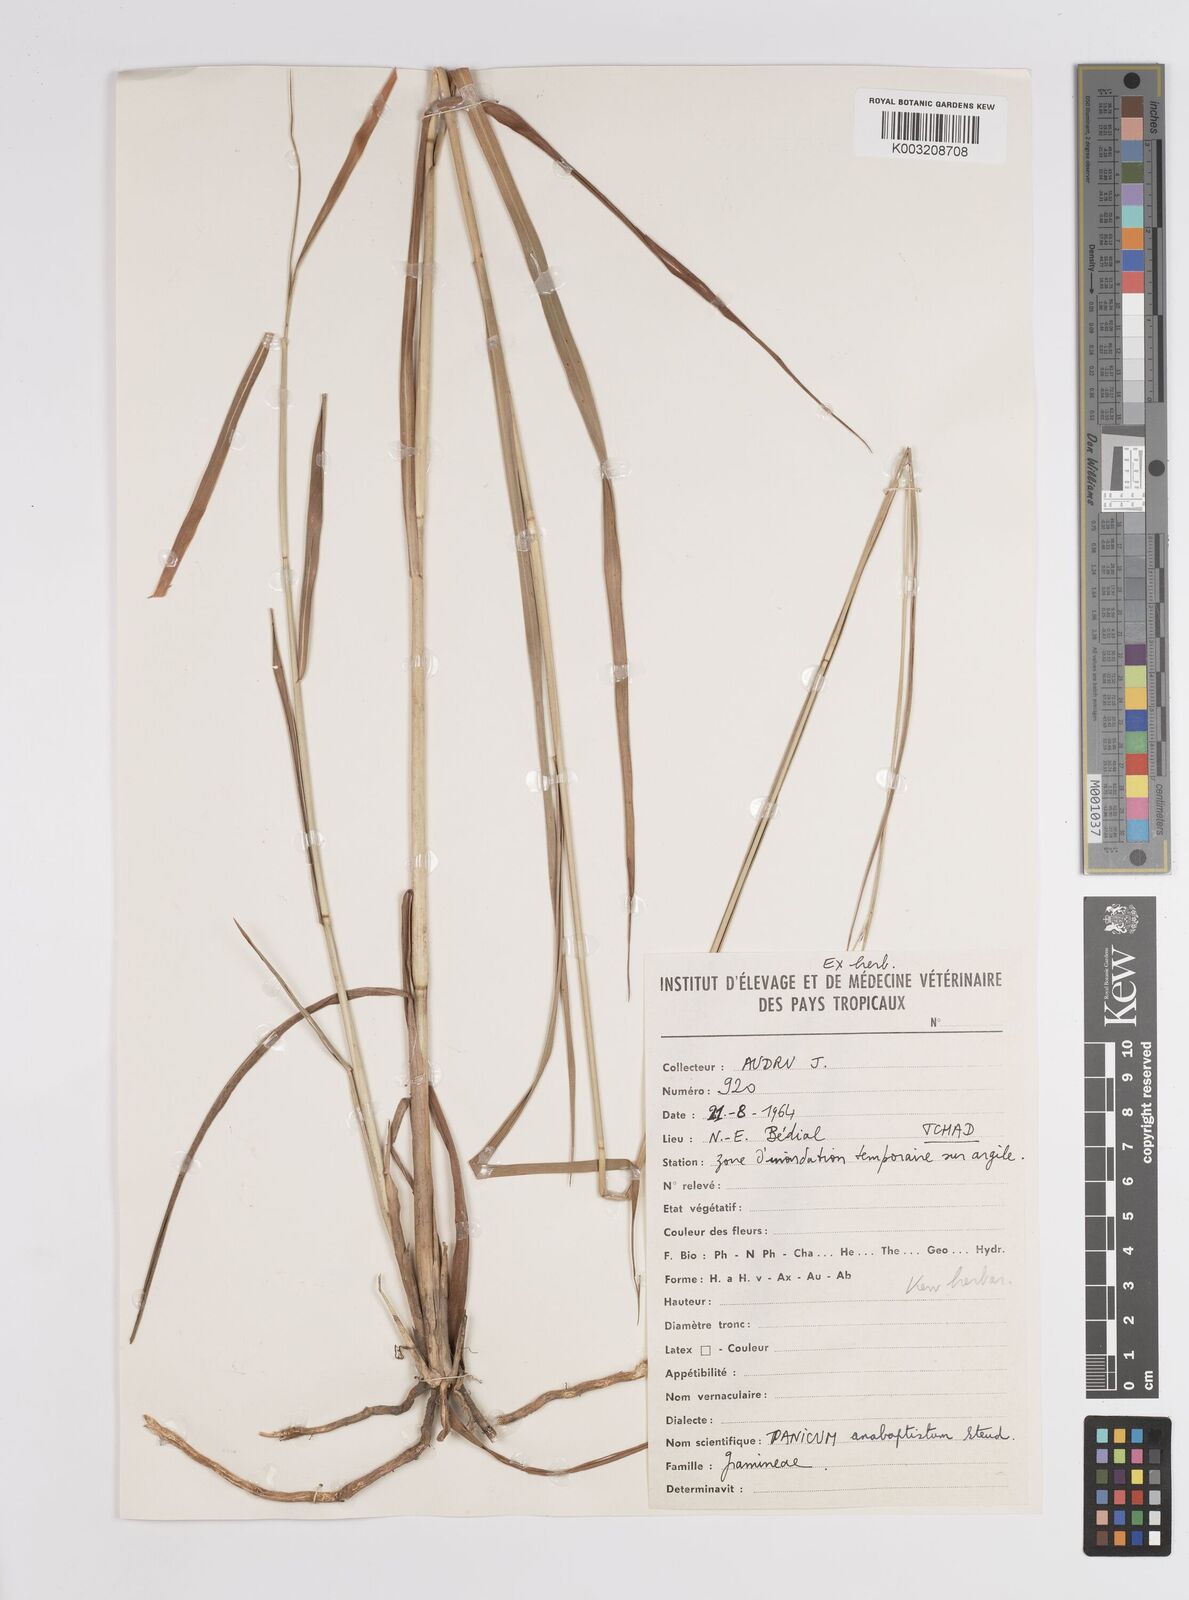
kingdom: Plantae
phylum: Tracheophyta
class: Liliopsida
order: Poales
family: Poaceae
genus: Panicum
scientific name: Panicum anabaptistum
